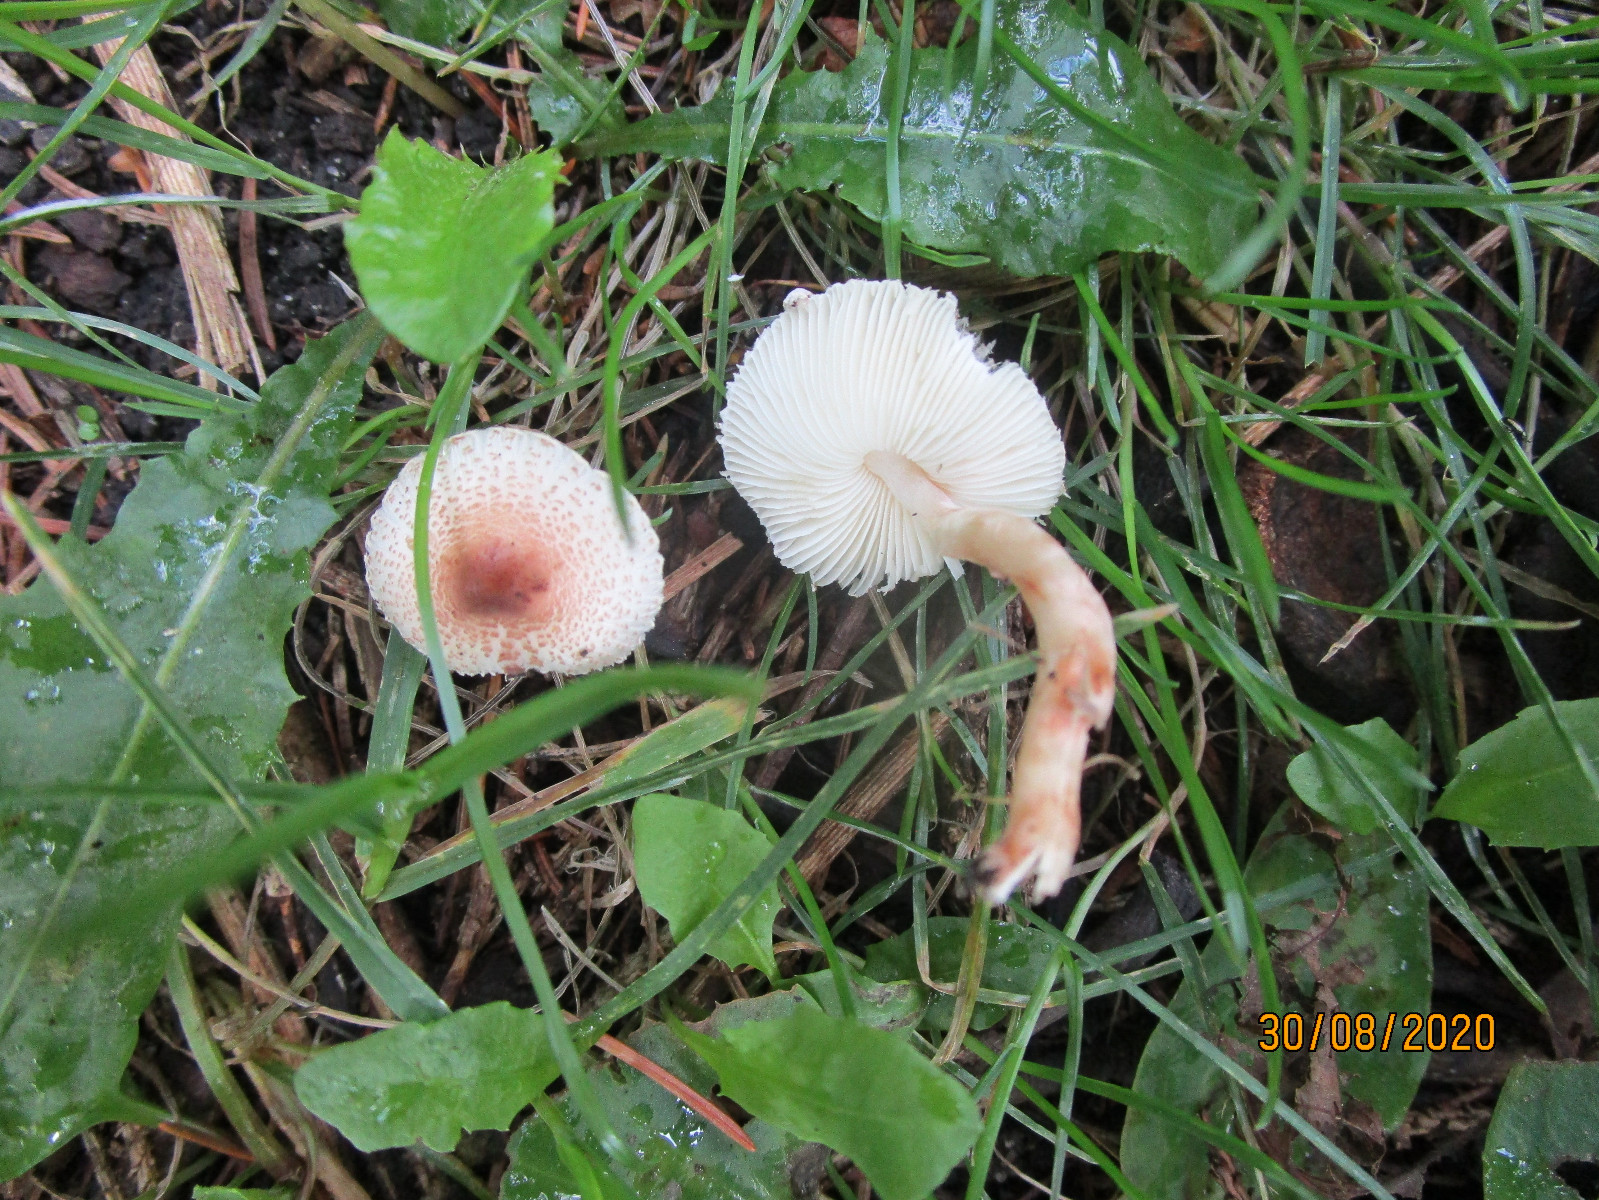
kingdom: Fungi
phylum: Basidiomycota
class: Agaricomycetes
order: Agaricales
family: Agaricaceae
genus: Lepiota
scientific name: Lepiota cristata
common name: stinkende parasolhat
